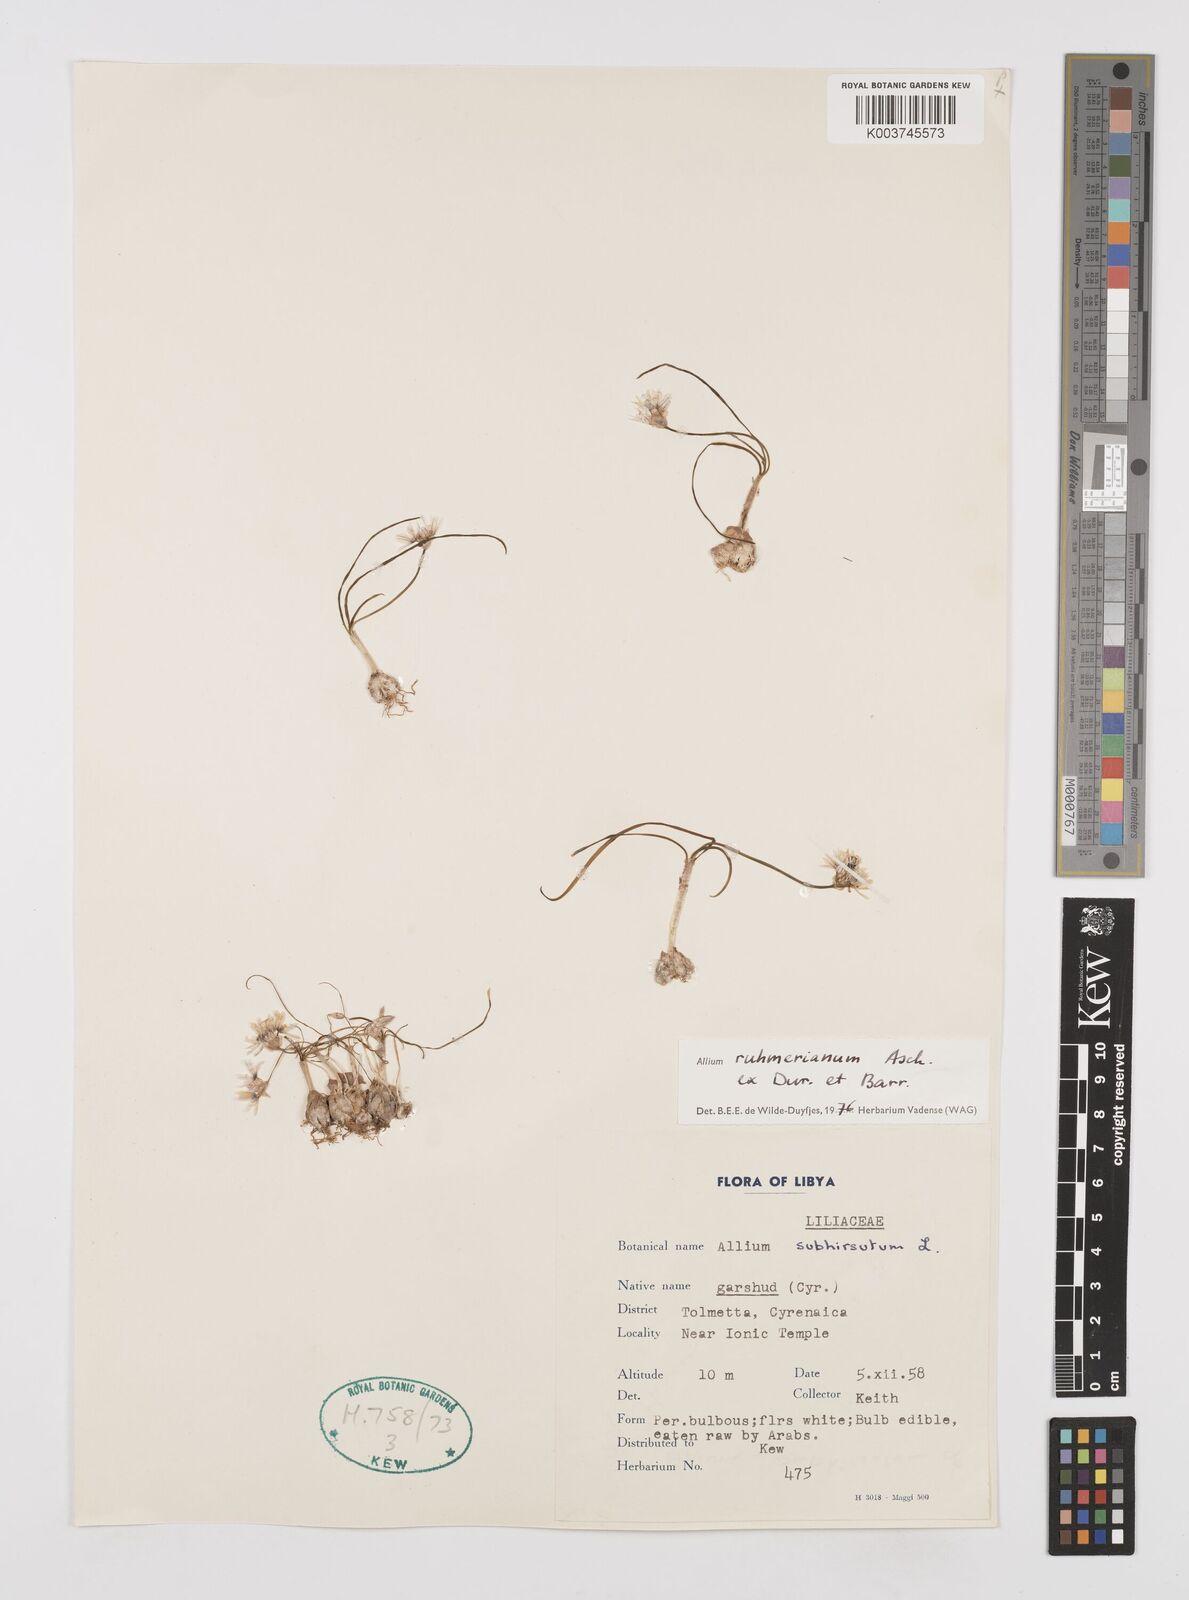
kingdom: Plantae
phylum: Tracheophyta
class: Liliopsida
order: Asparagales
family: Amaryllidaceae
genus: Allium
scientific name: Allium ruhmerianum
